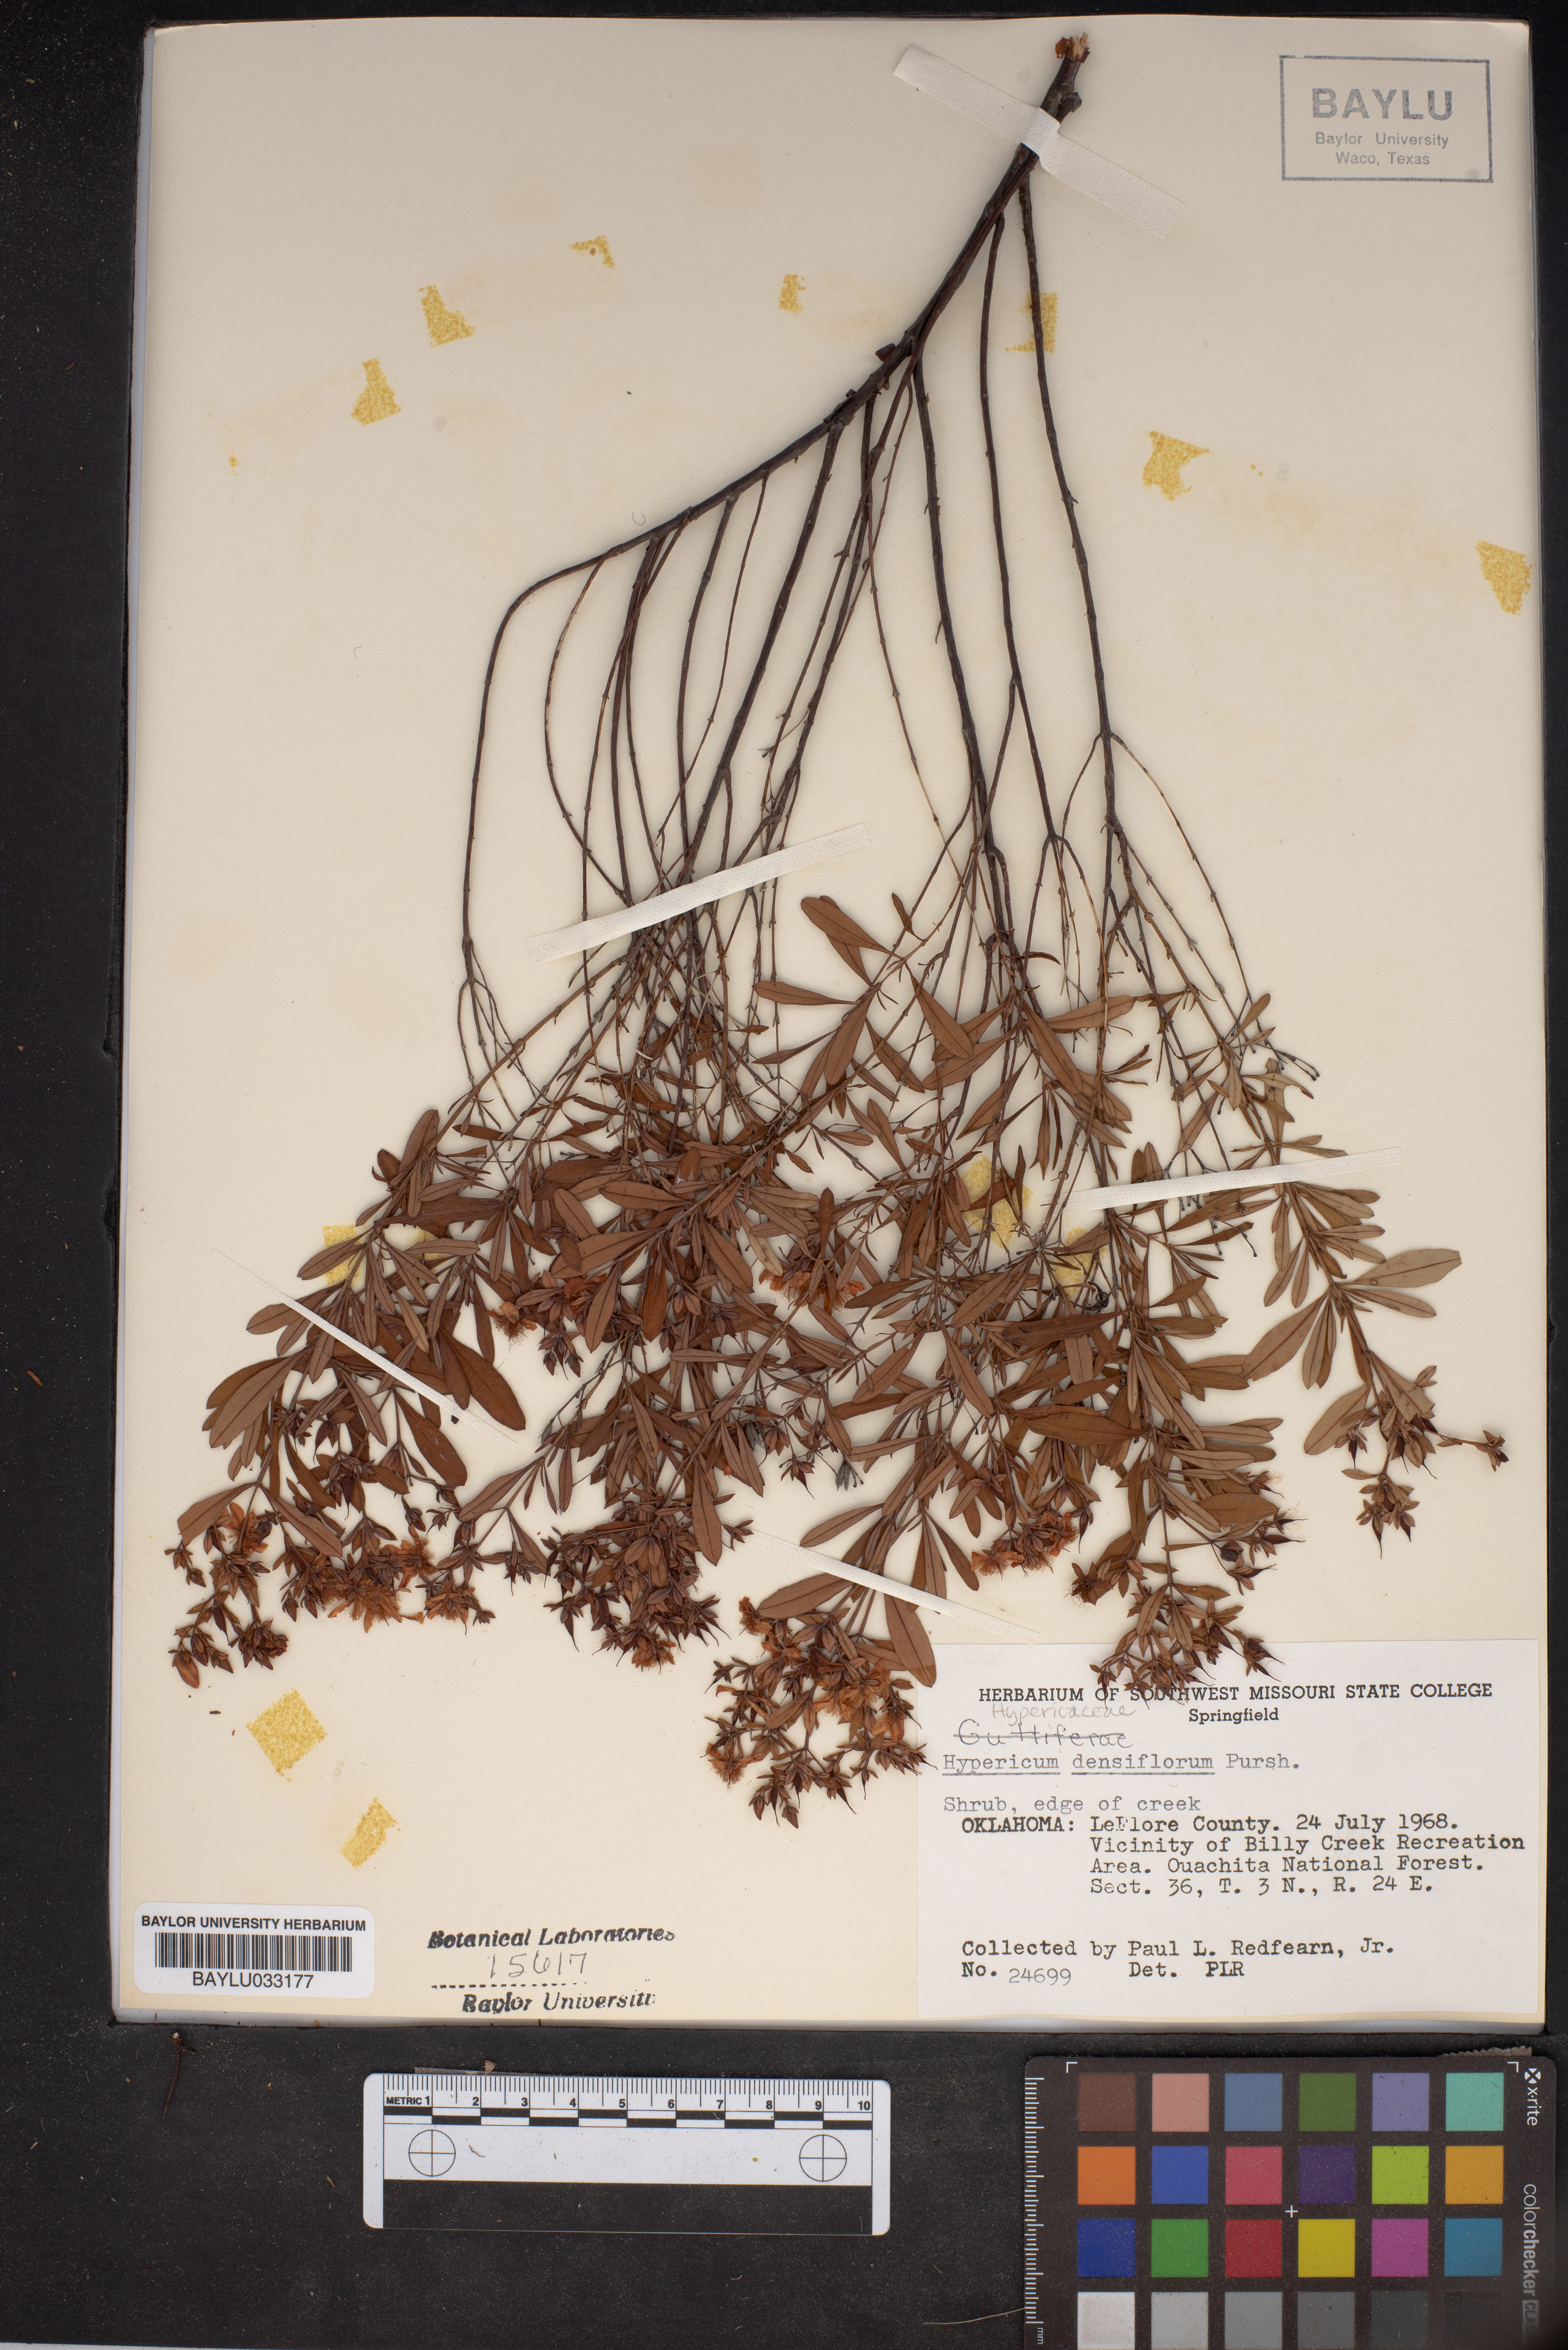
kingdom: Plantae
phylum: Tracheophyta
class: Magnoliopsida
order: Malpighiales
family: Hypericaceae
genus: Hypericum
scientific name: Hypericum densiflorum
